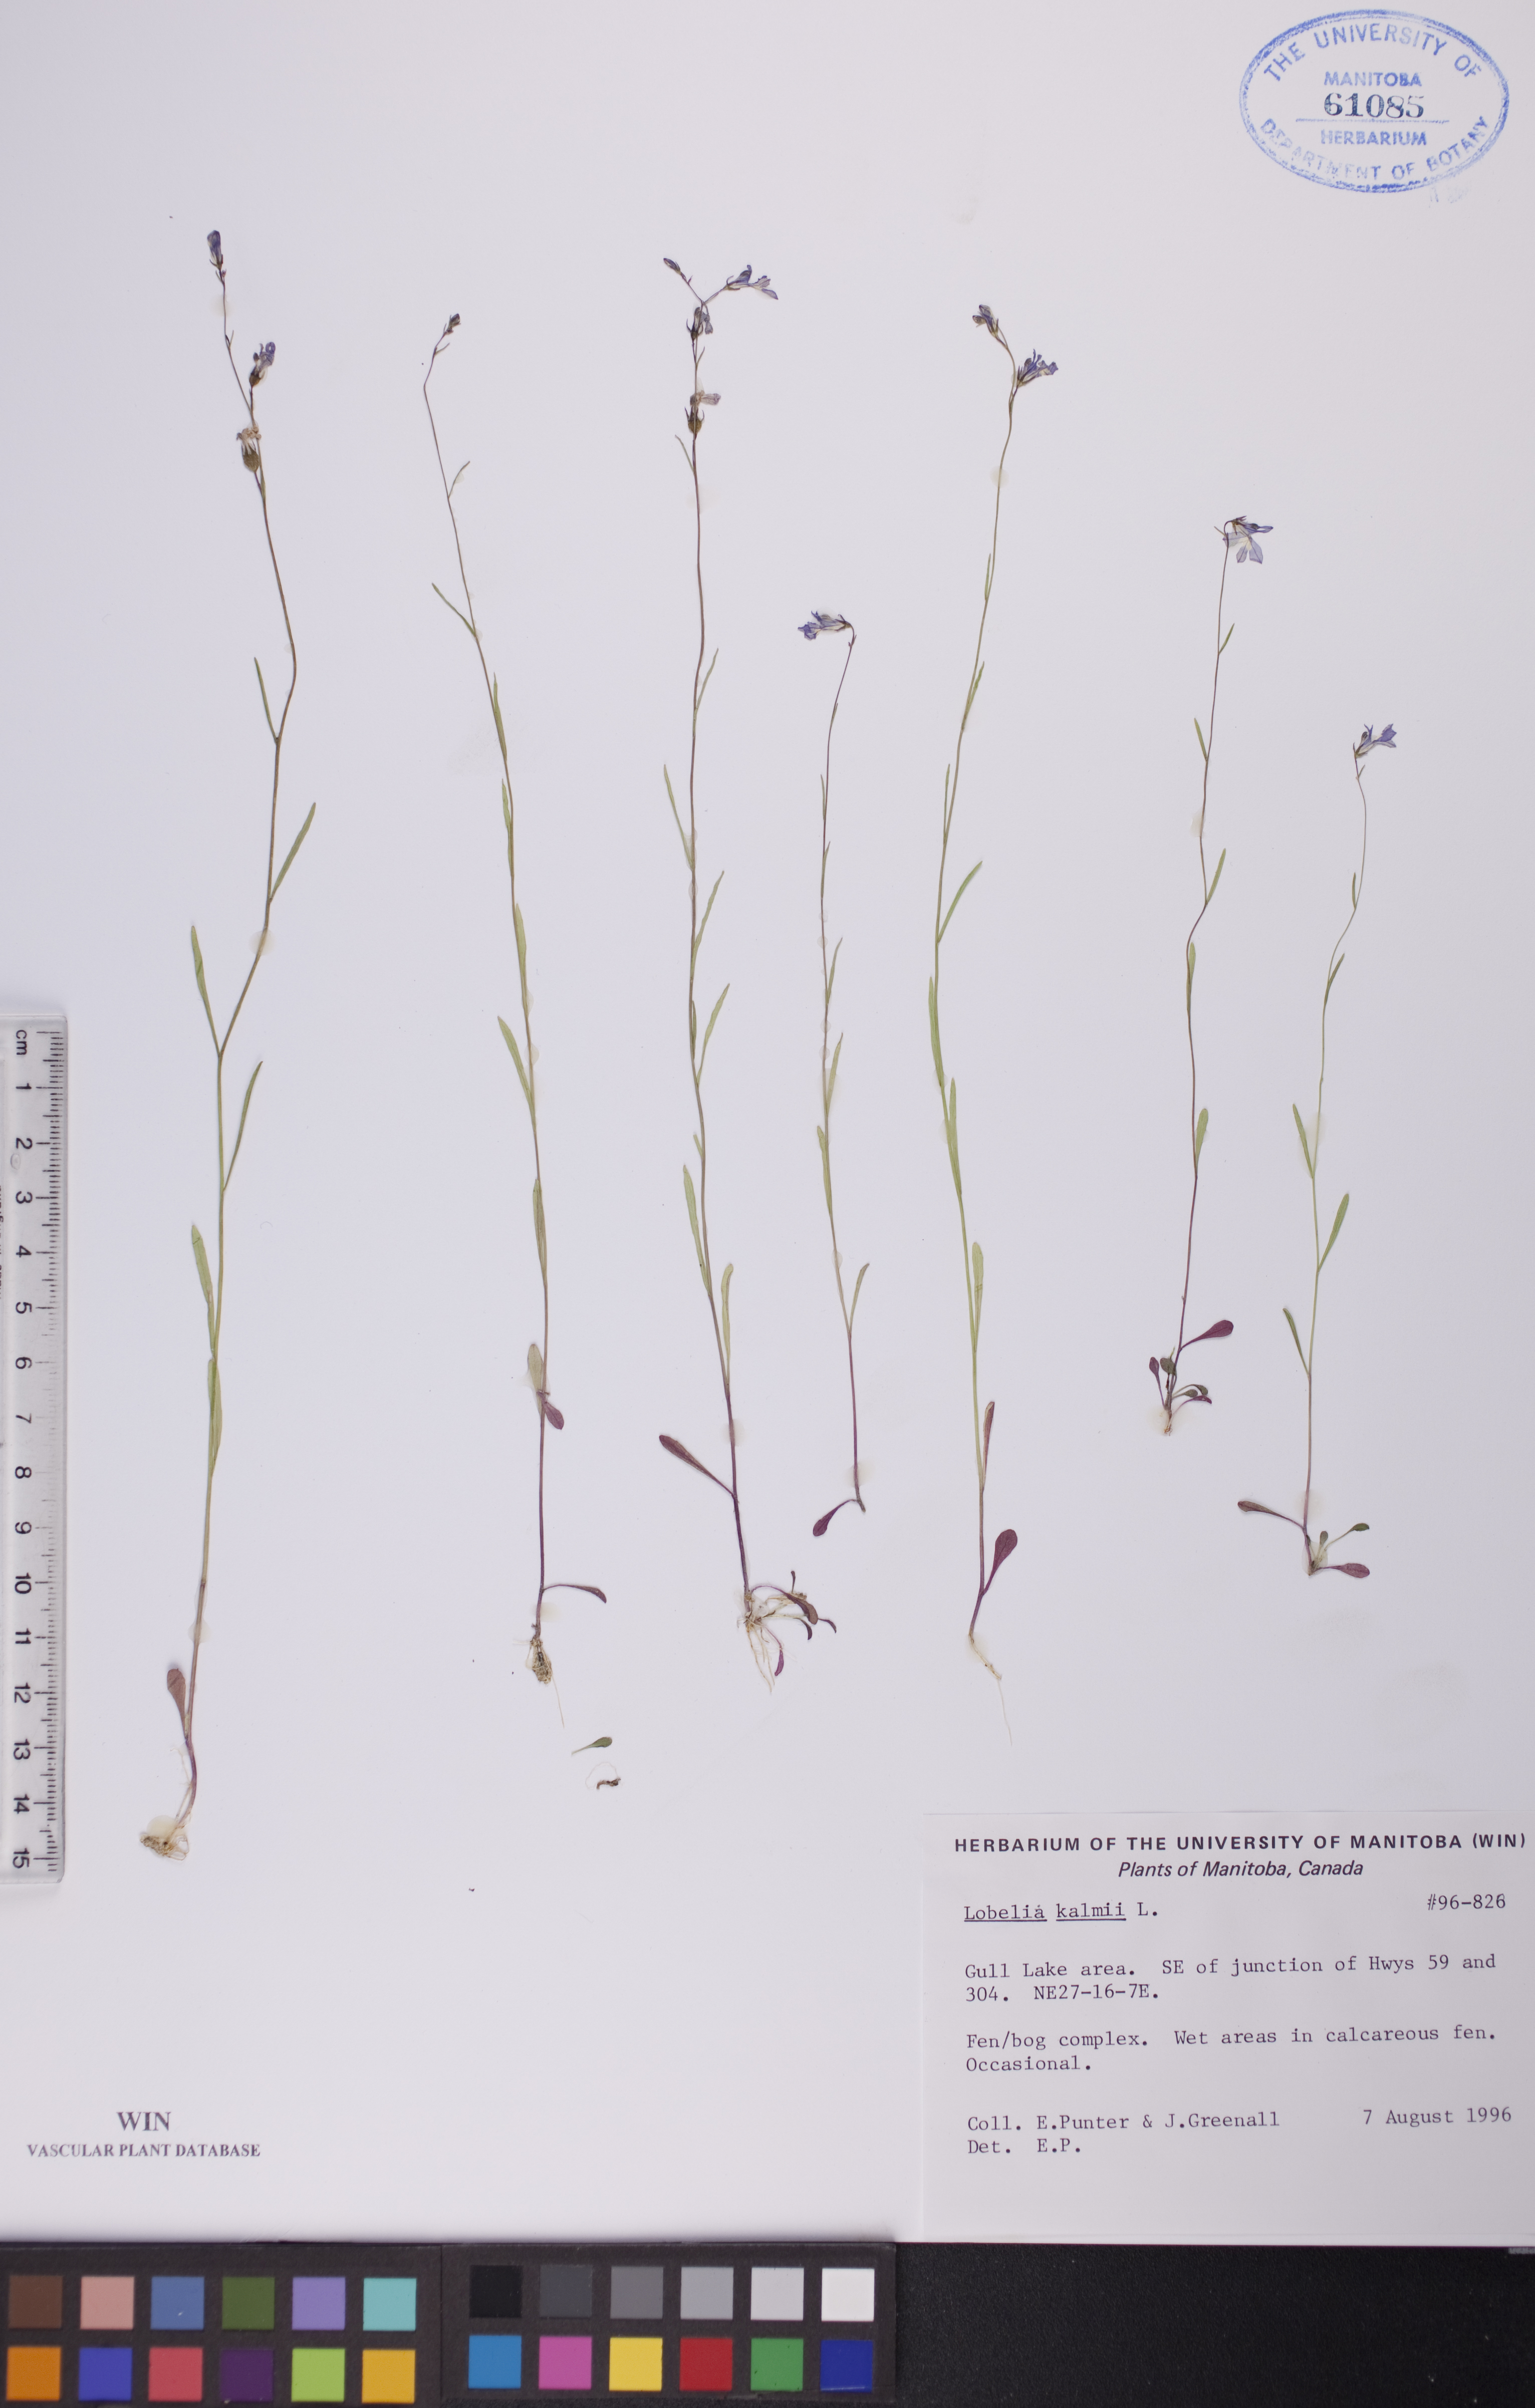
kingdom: Plantae
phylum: Tracheophyta
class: Magnoliopsida
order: Asterales
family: Campanulaceae
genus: Lobelia
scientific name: Lobelia kalmii
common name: Kalm's lobelia
